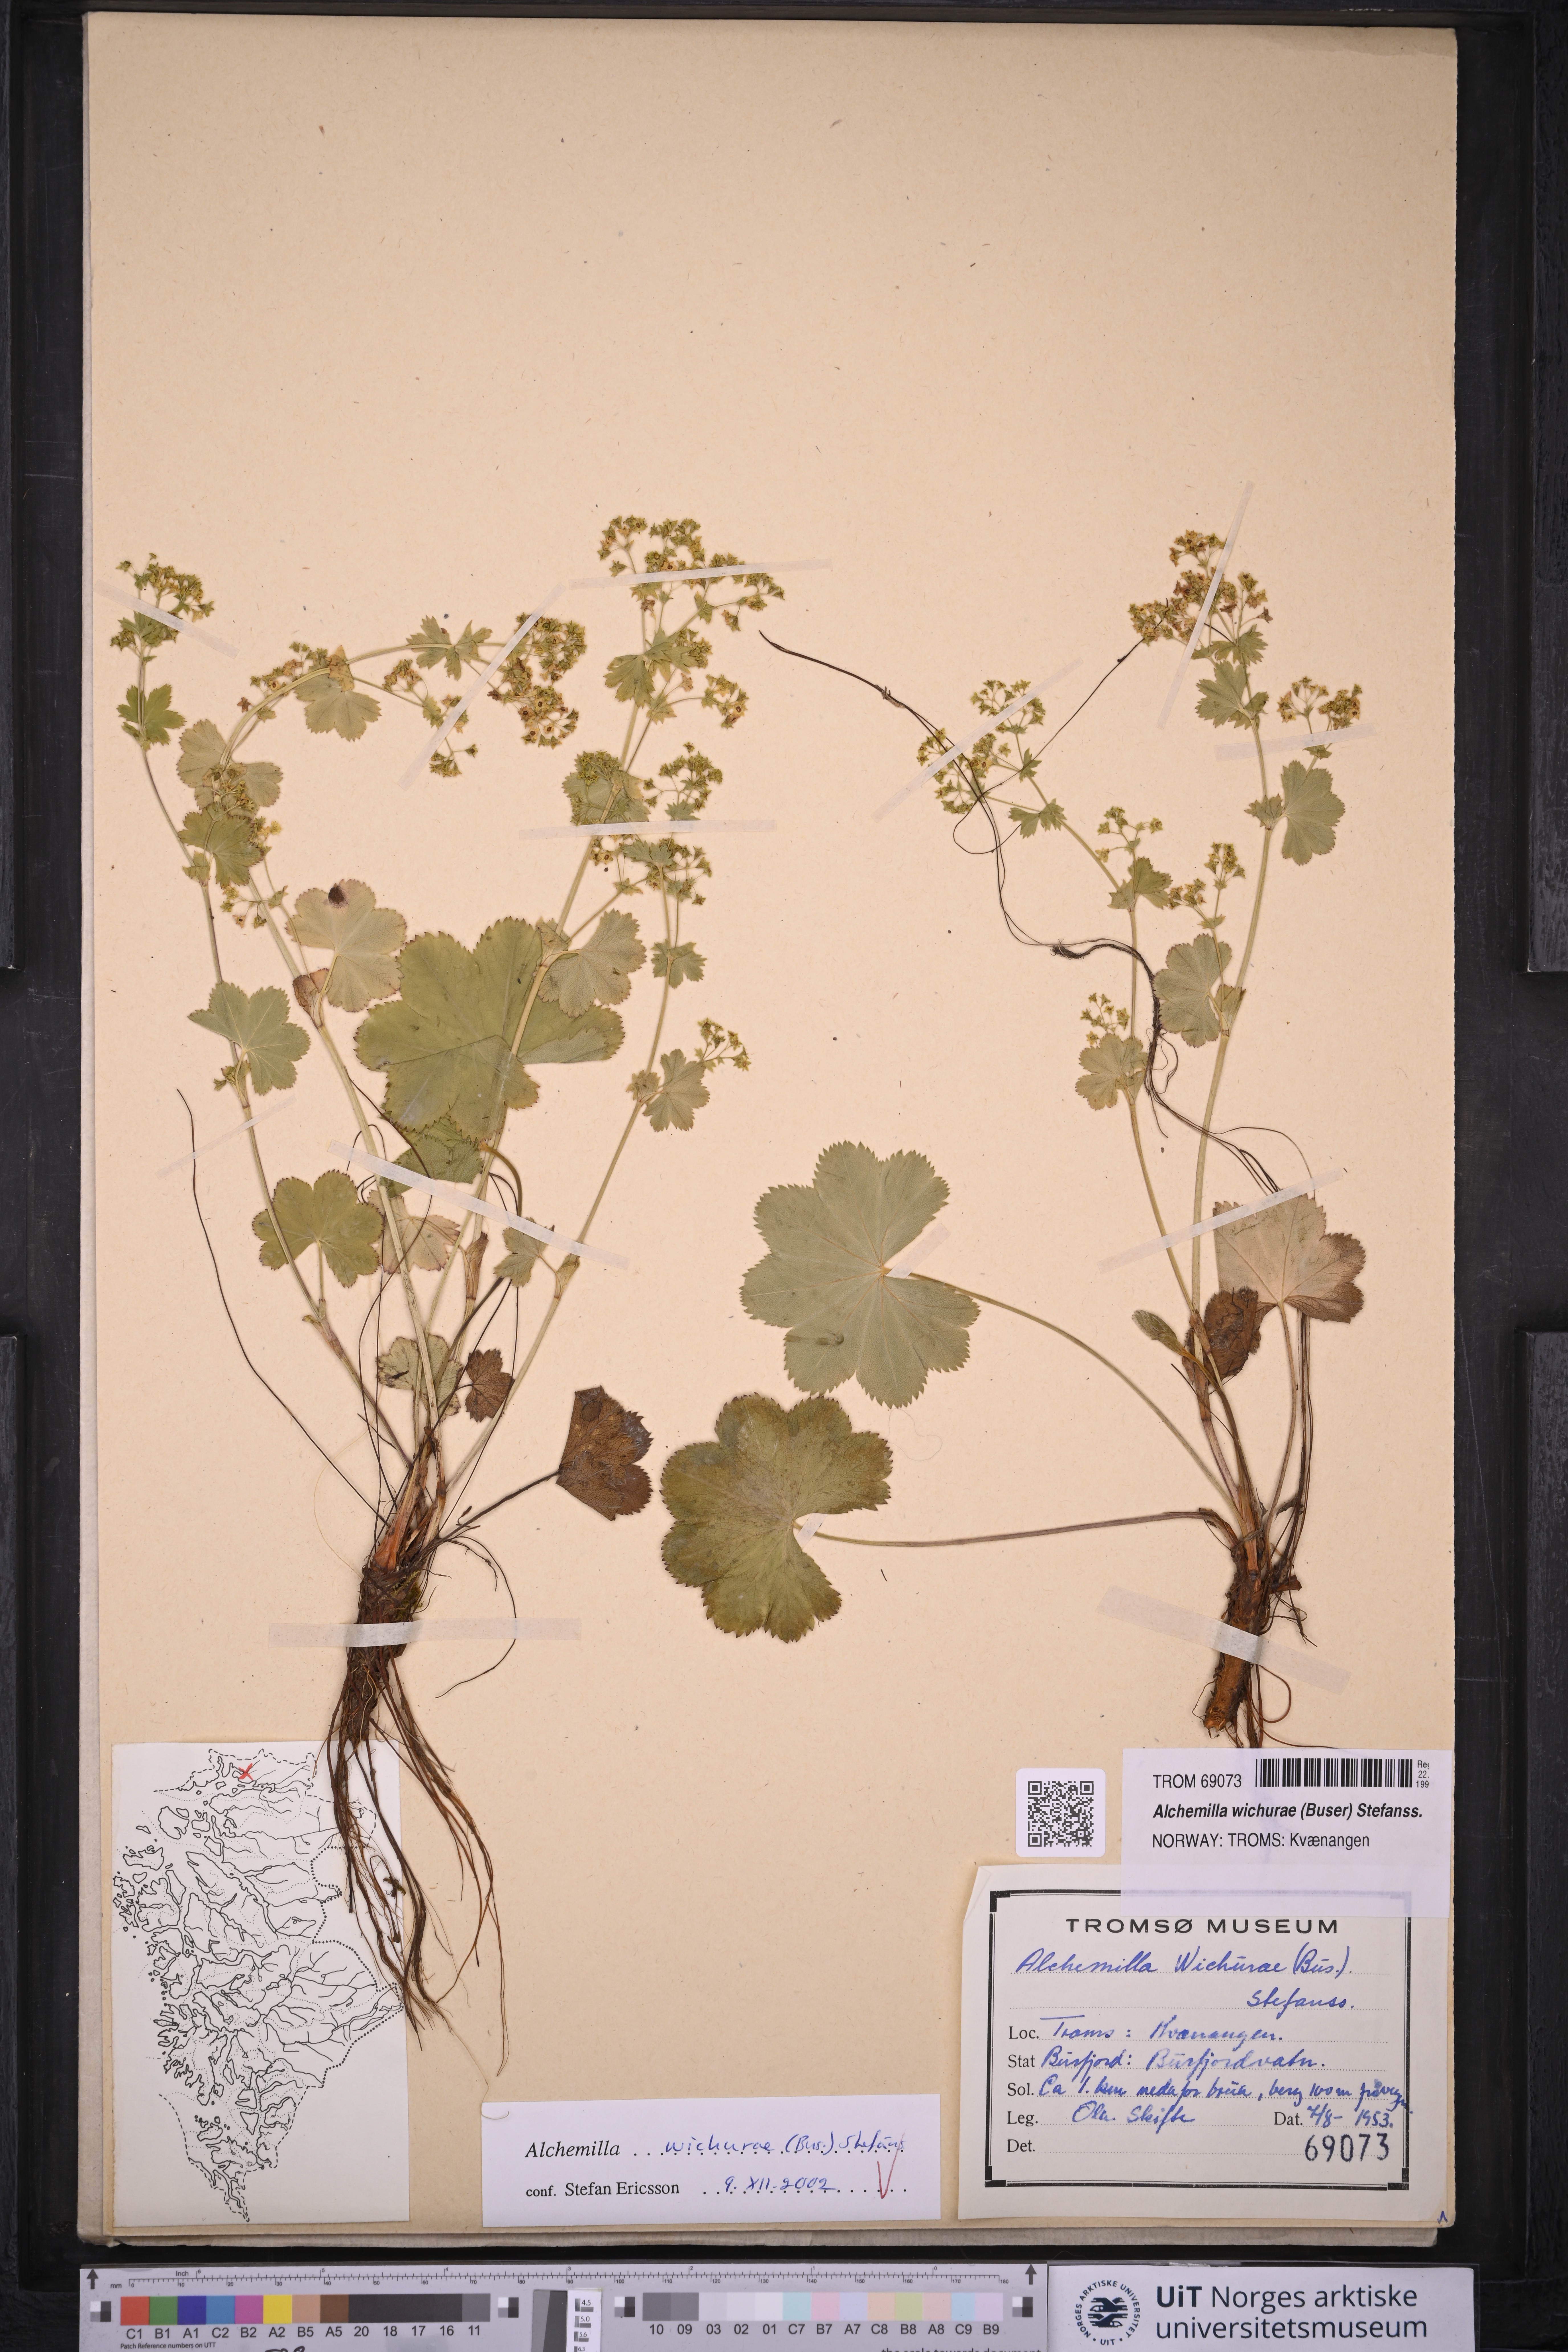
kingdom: Plantae
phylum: Tracheophyta
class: Magnoliopsida
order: Rosales
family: Rosaceae
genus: Alchemilla
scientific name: Alchemilla wichurae
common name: Rock lady's mantle
